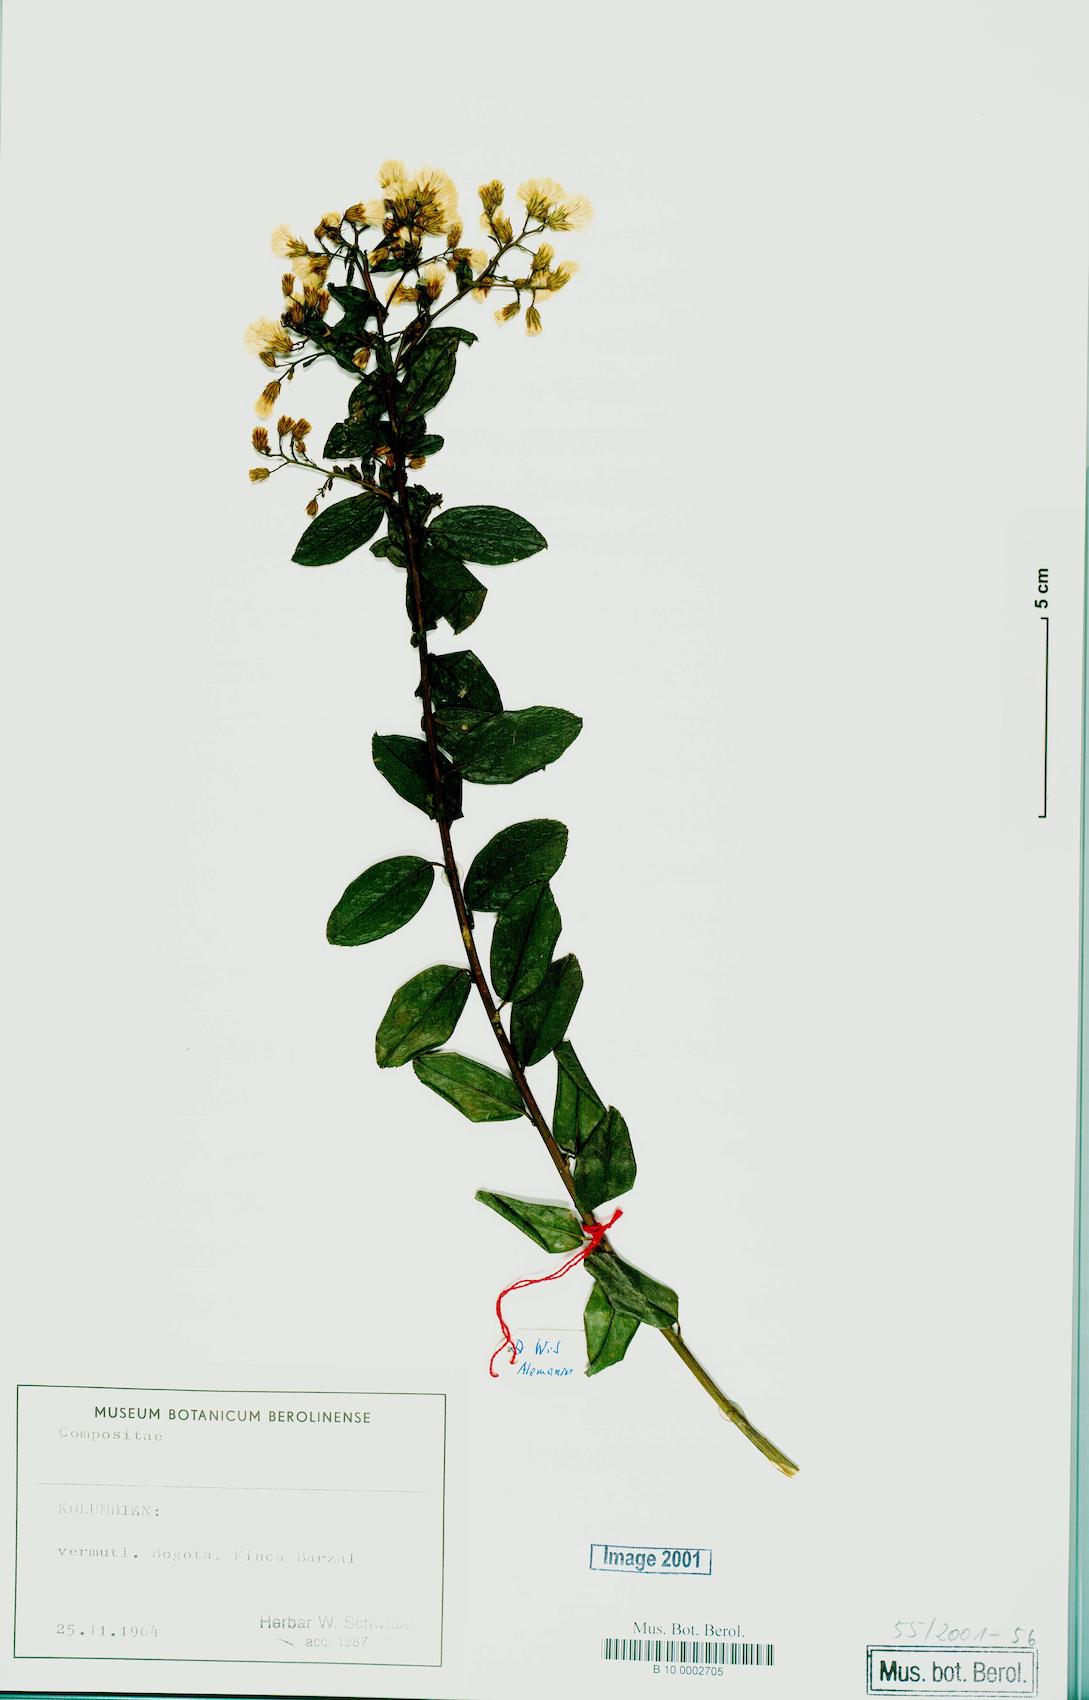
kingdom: Plantae
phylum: Tracheophyta
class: Magnoliopsida
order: Asterales
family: Asteraceae
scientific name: Asteraceae
